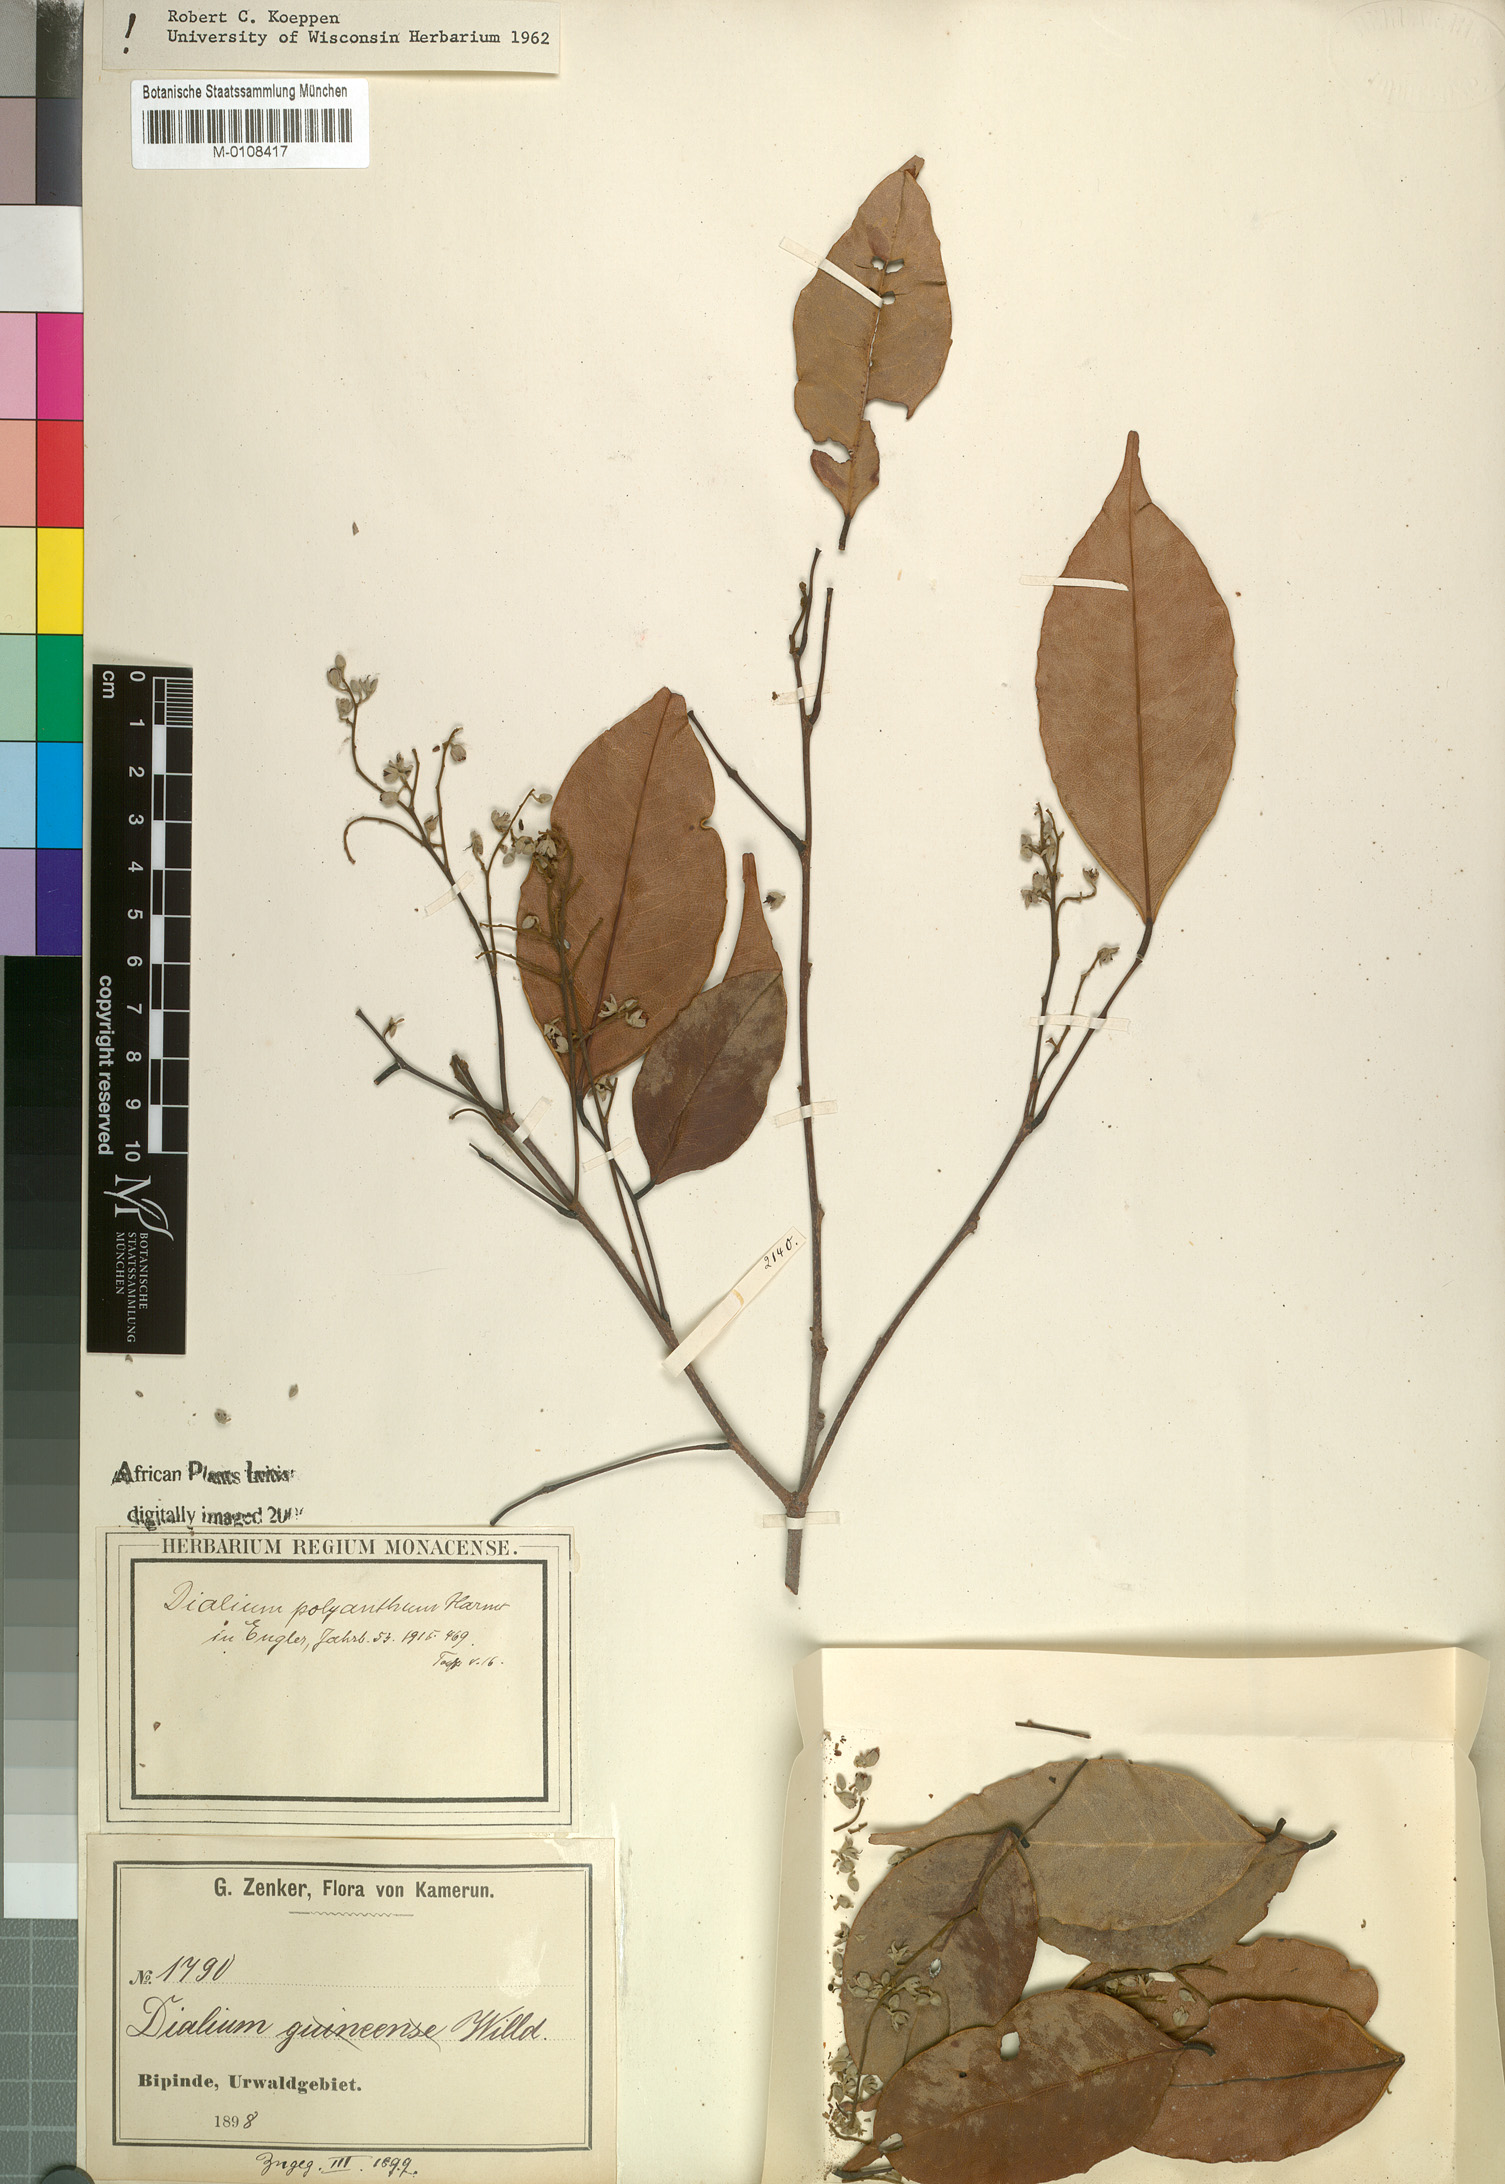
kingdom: Plantae
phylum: Tracheophyta
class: Magnoliopsida
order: Fabales
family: Fabaceae
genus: Dialium
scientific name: Dialium polyanthum
